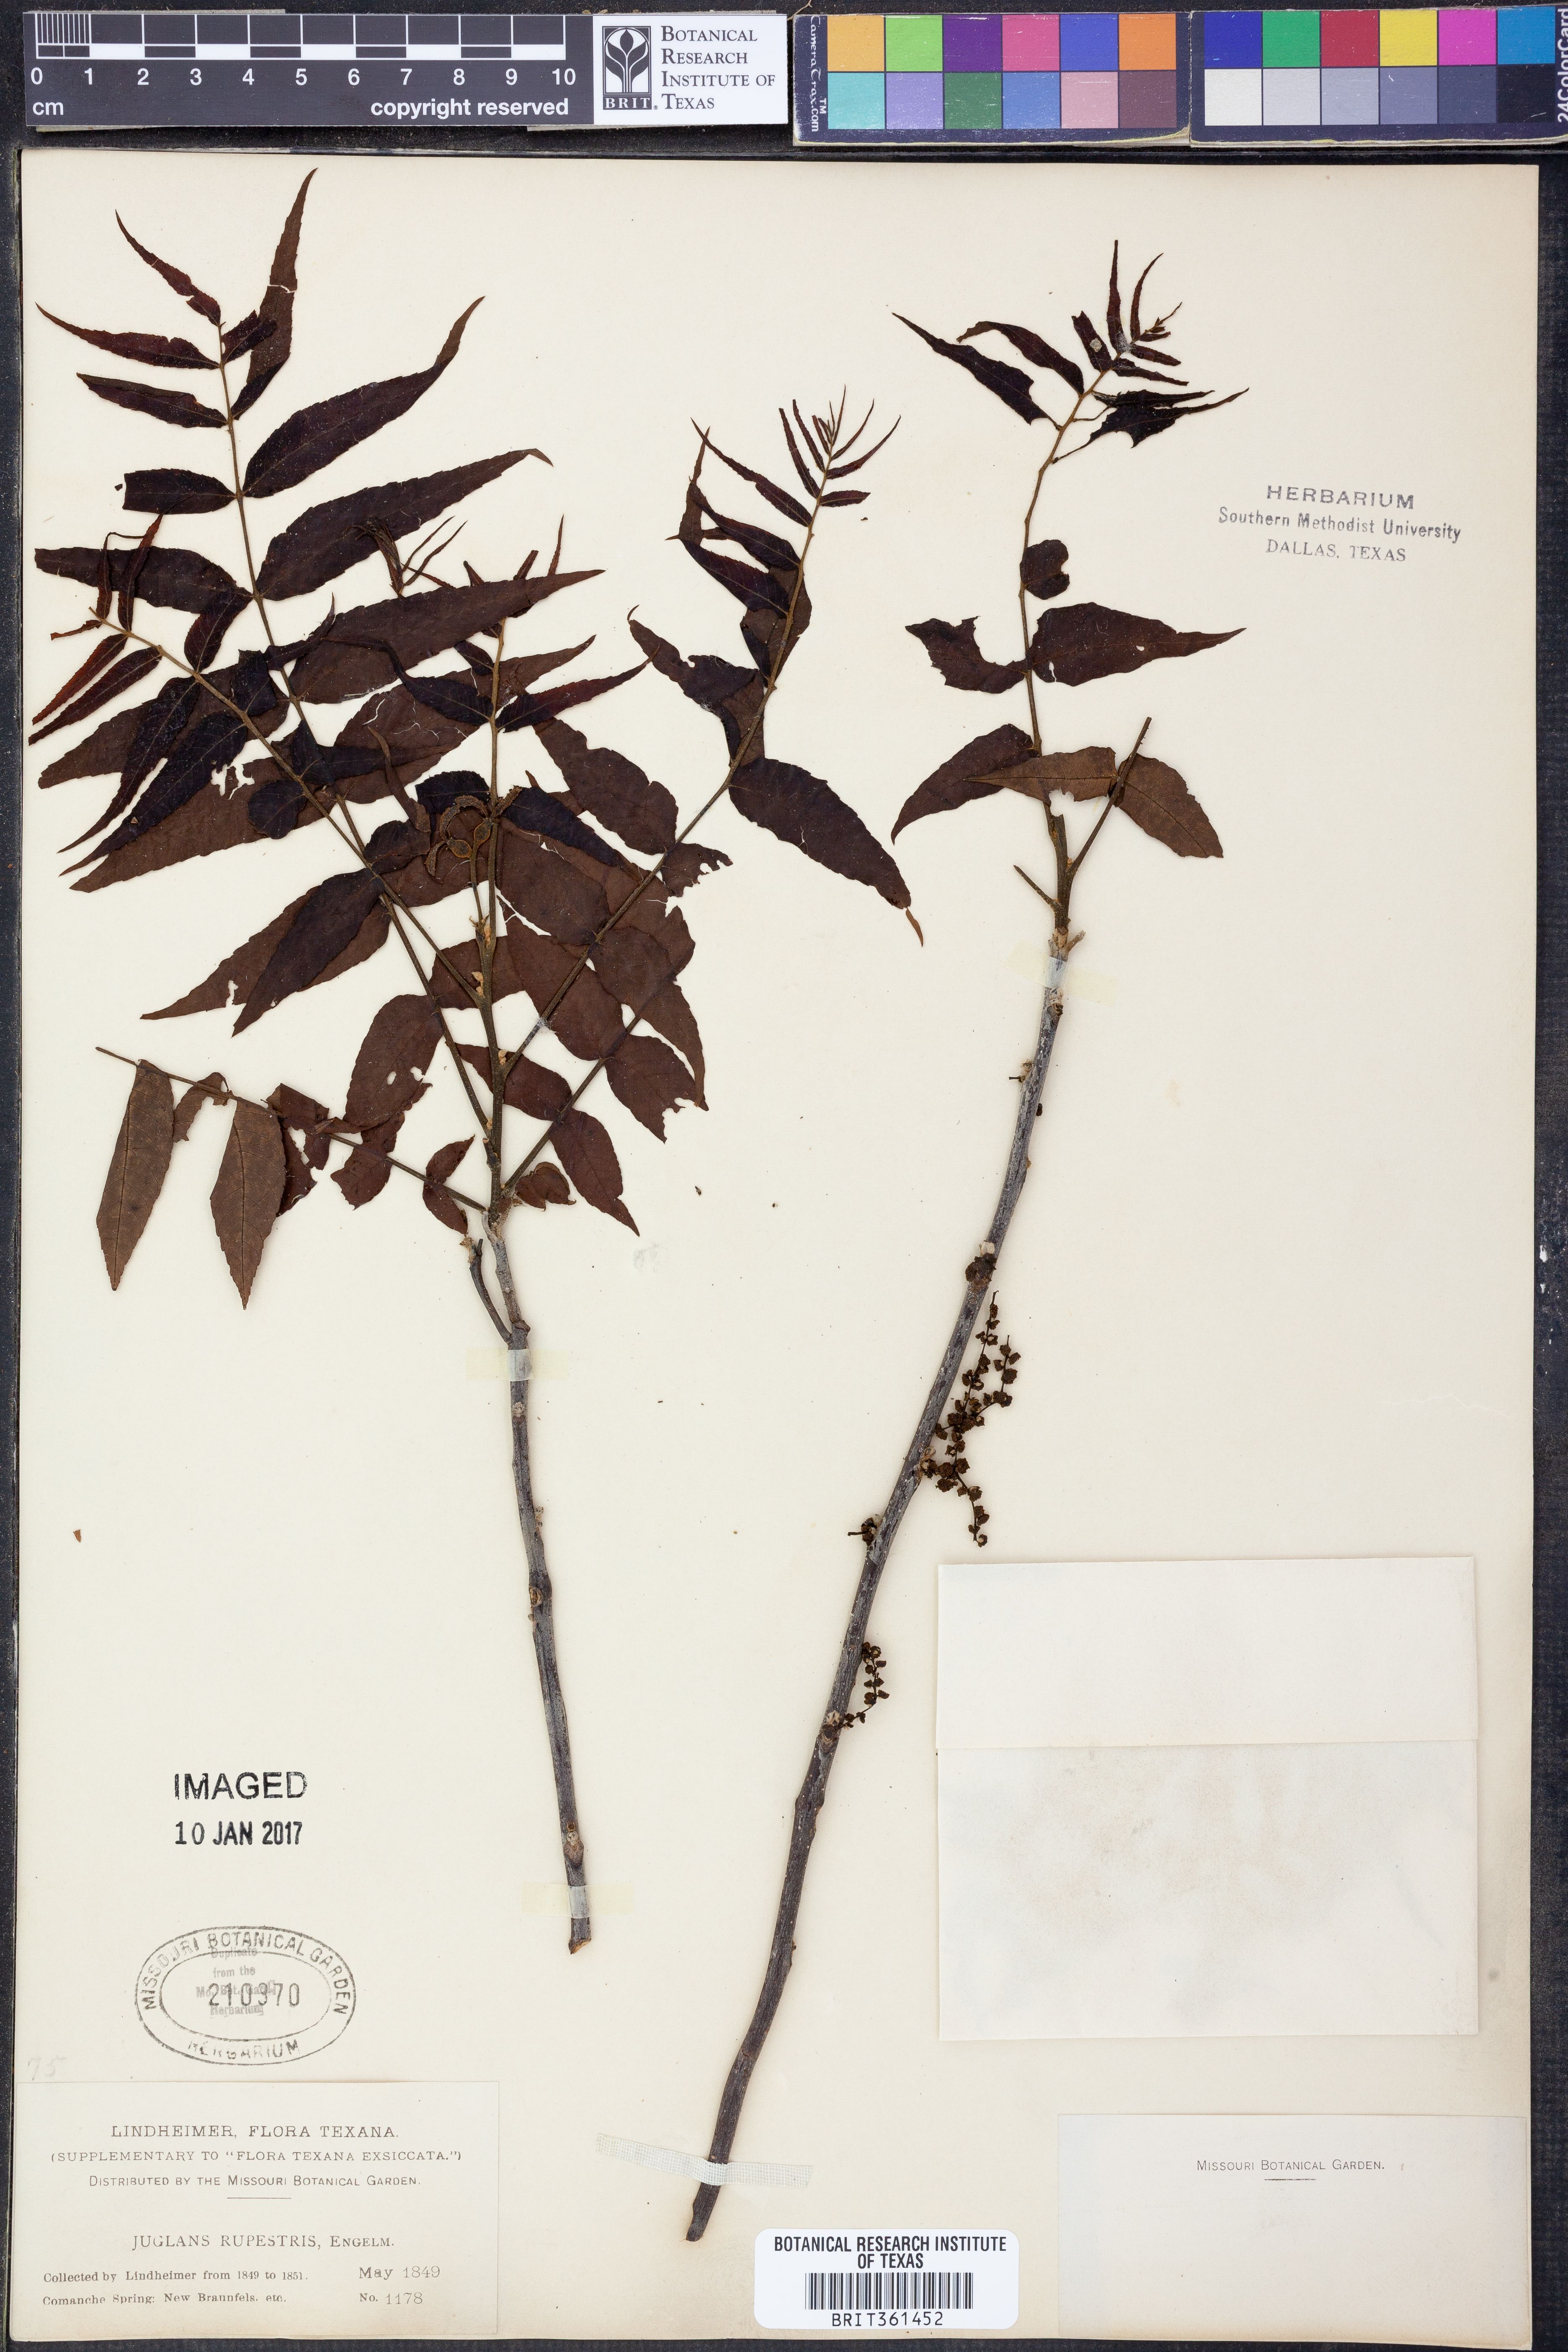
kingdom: Plantae
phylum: Tracheophyta
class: Magnoliopsida
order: Fagales
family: Juglandaceae
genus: Juglans
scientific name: Juglans microcarpa
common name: Texas walnut
